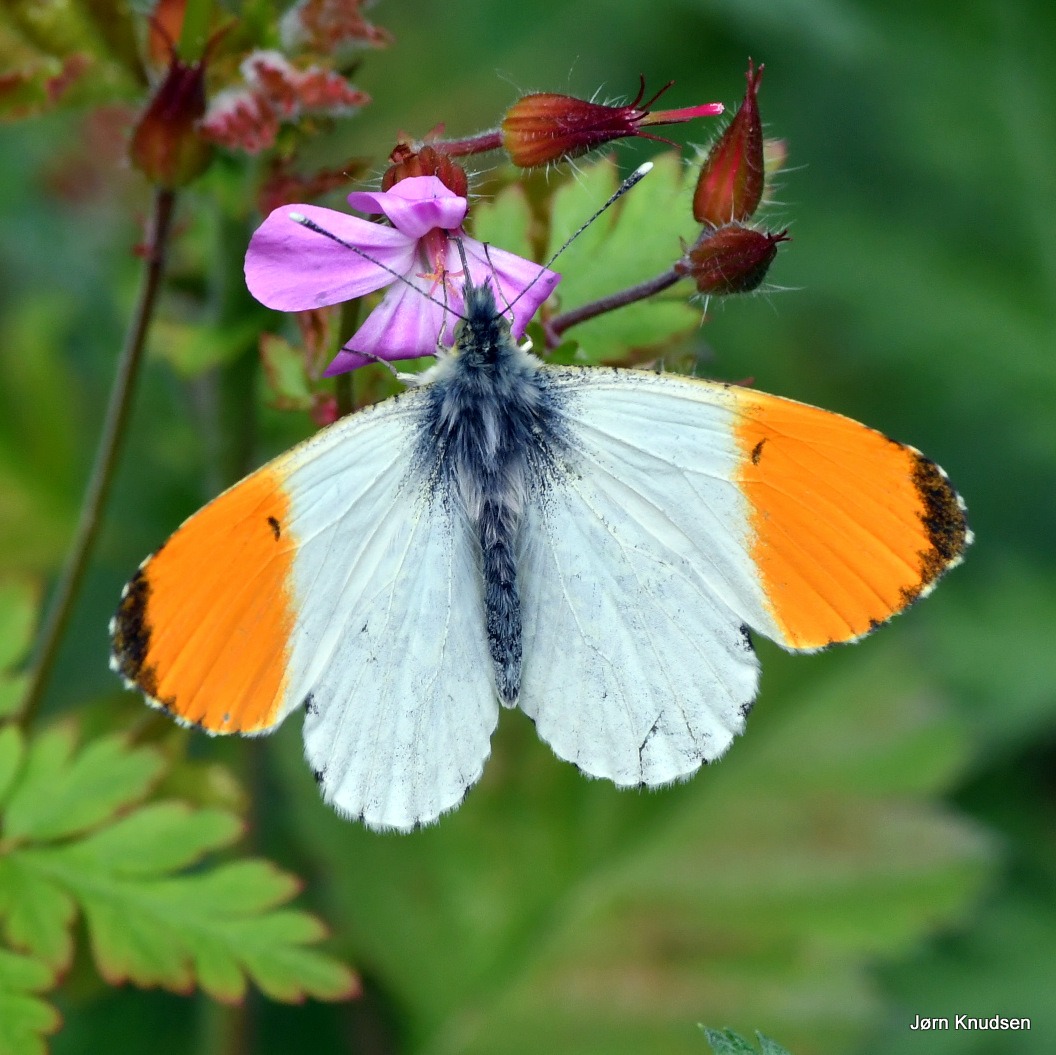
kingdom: Animalia
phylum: Arthropoda
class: Insecta
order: Lepidoptera
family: Pieridae
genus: Anthocharis
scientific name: Anthocharis cardamines
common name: Aurora
